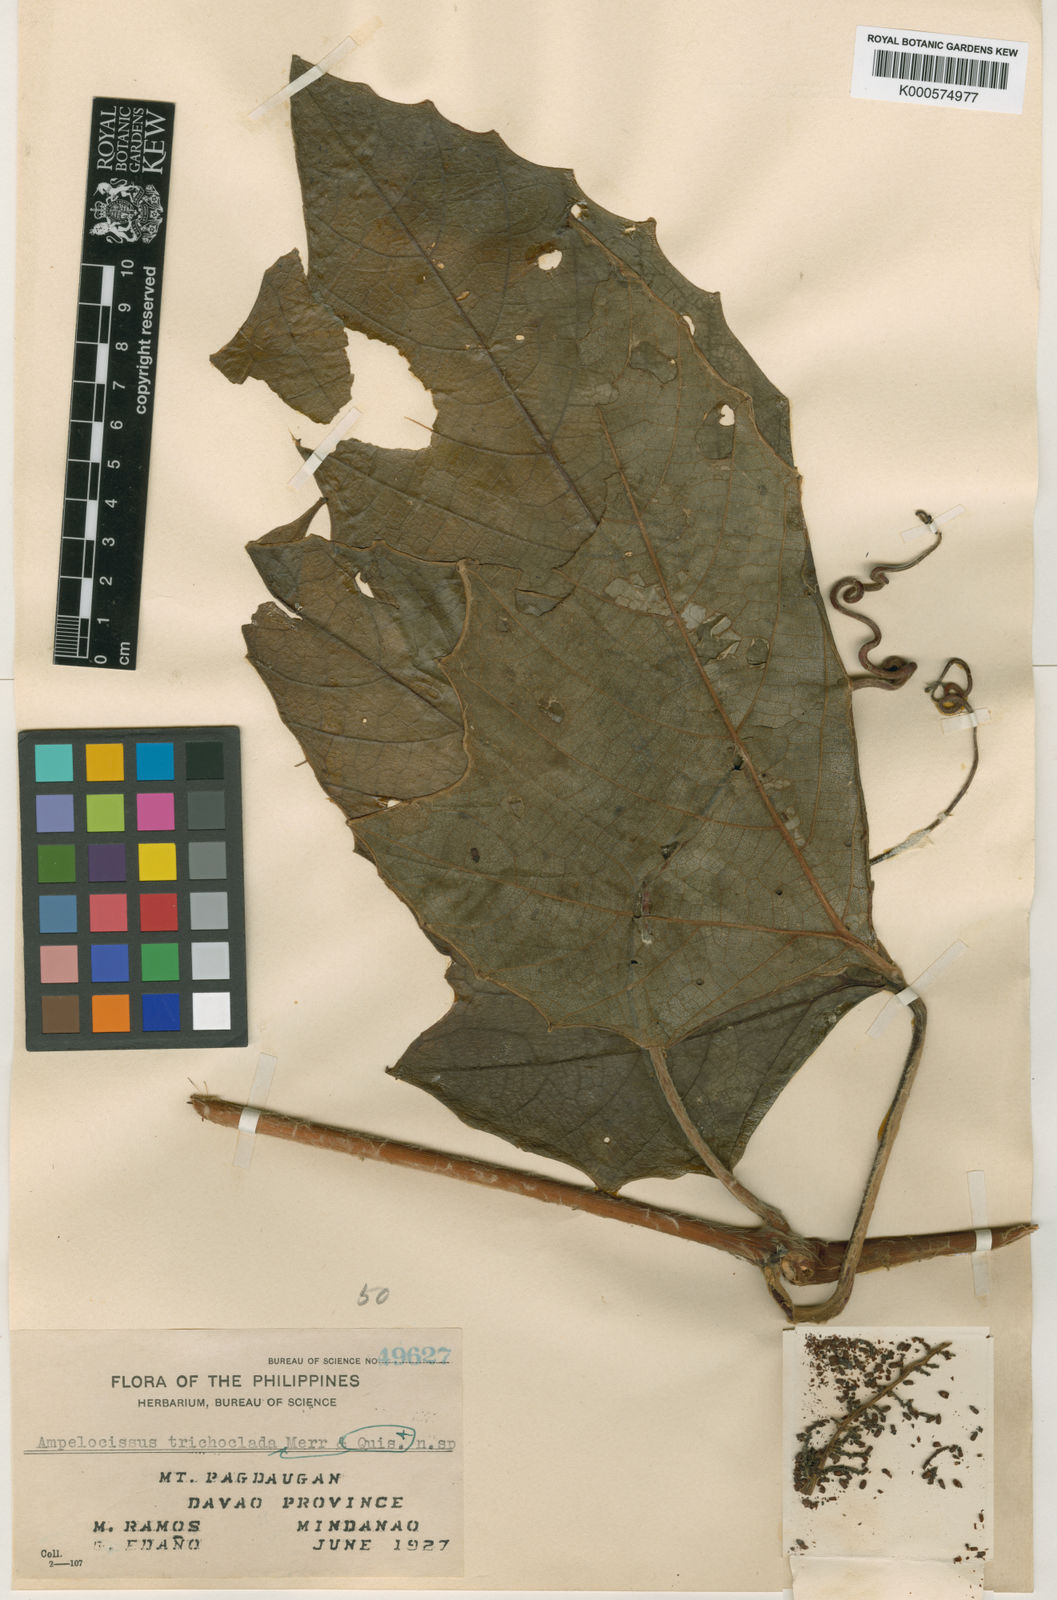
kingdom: Plantae
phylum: Tracheophyta
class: Magnoliopsida
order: Vitales
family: Vitaceae
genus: Ampelocissus
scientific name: Ampelocissus trichoclada
